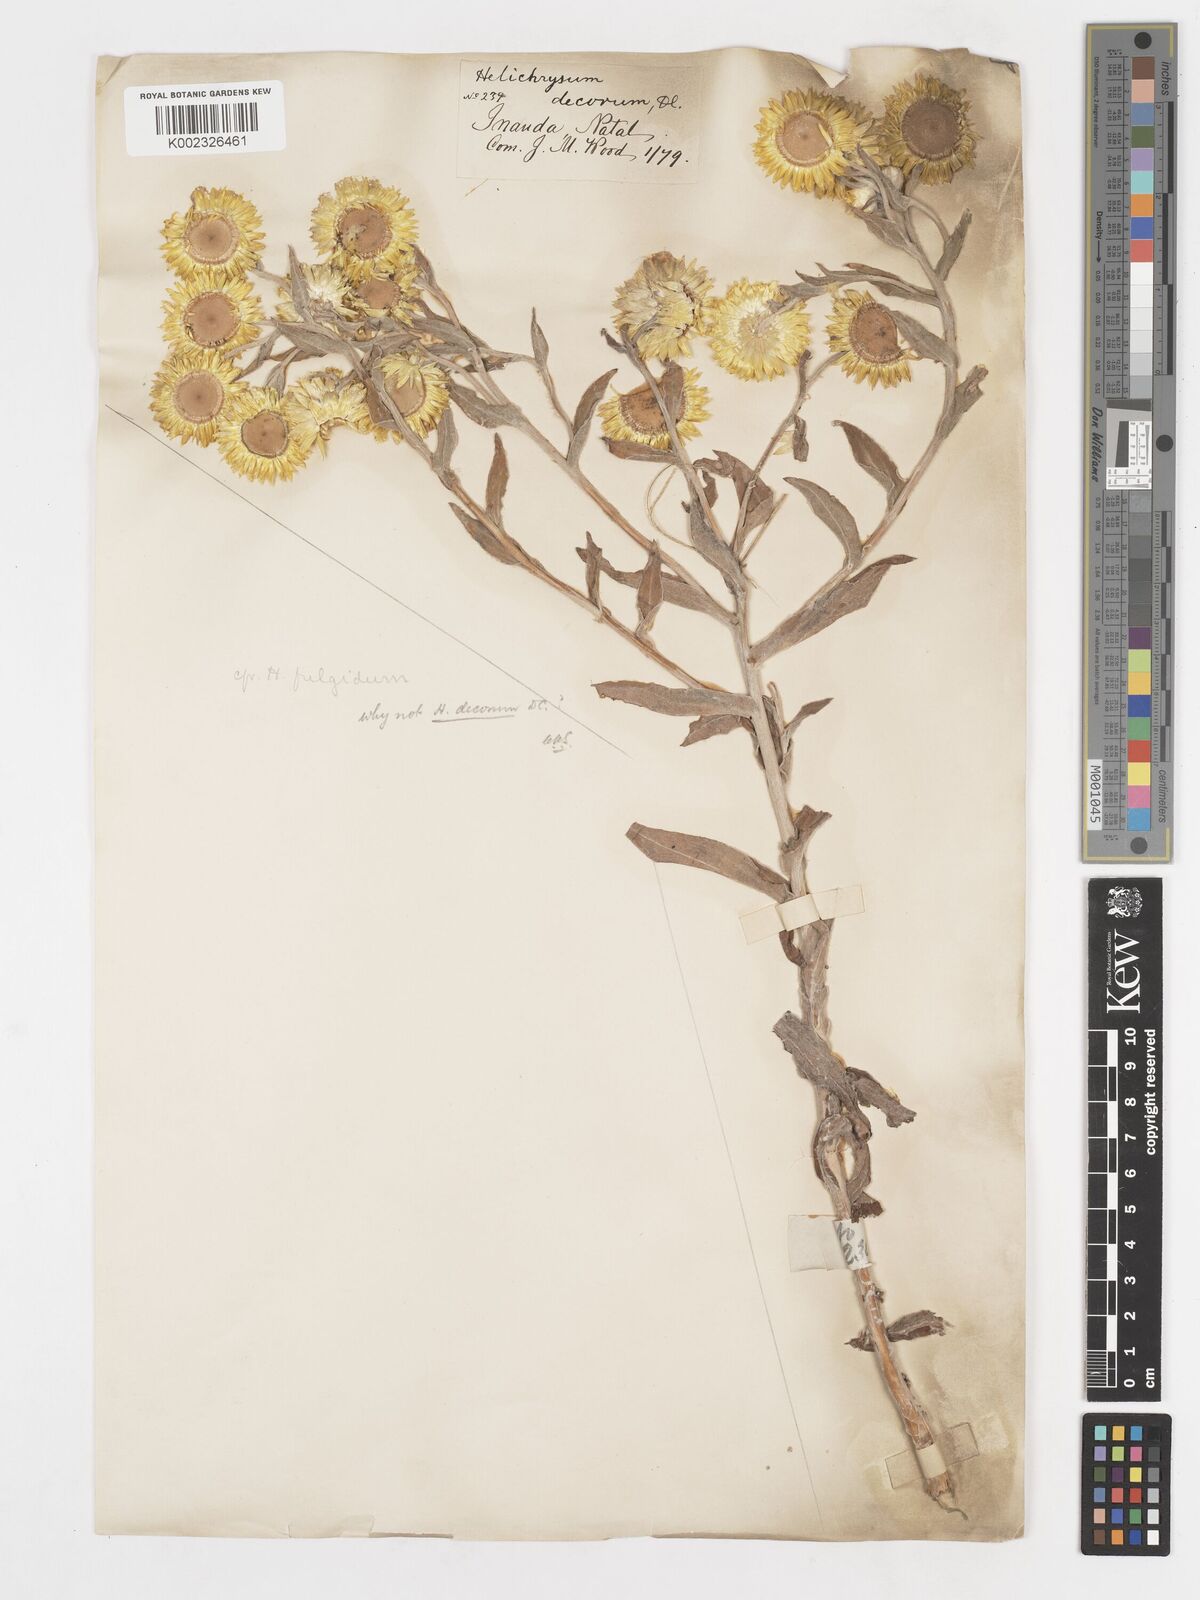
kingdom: Plantae
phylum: Tracheophyta
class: Magnoliopsida
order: Asterales
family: Asteraceae
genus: Helichrysum
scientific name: Helichrysum decorum
